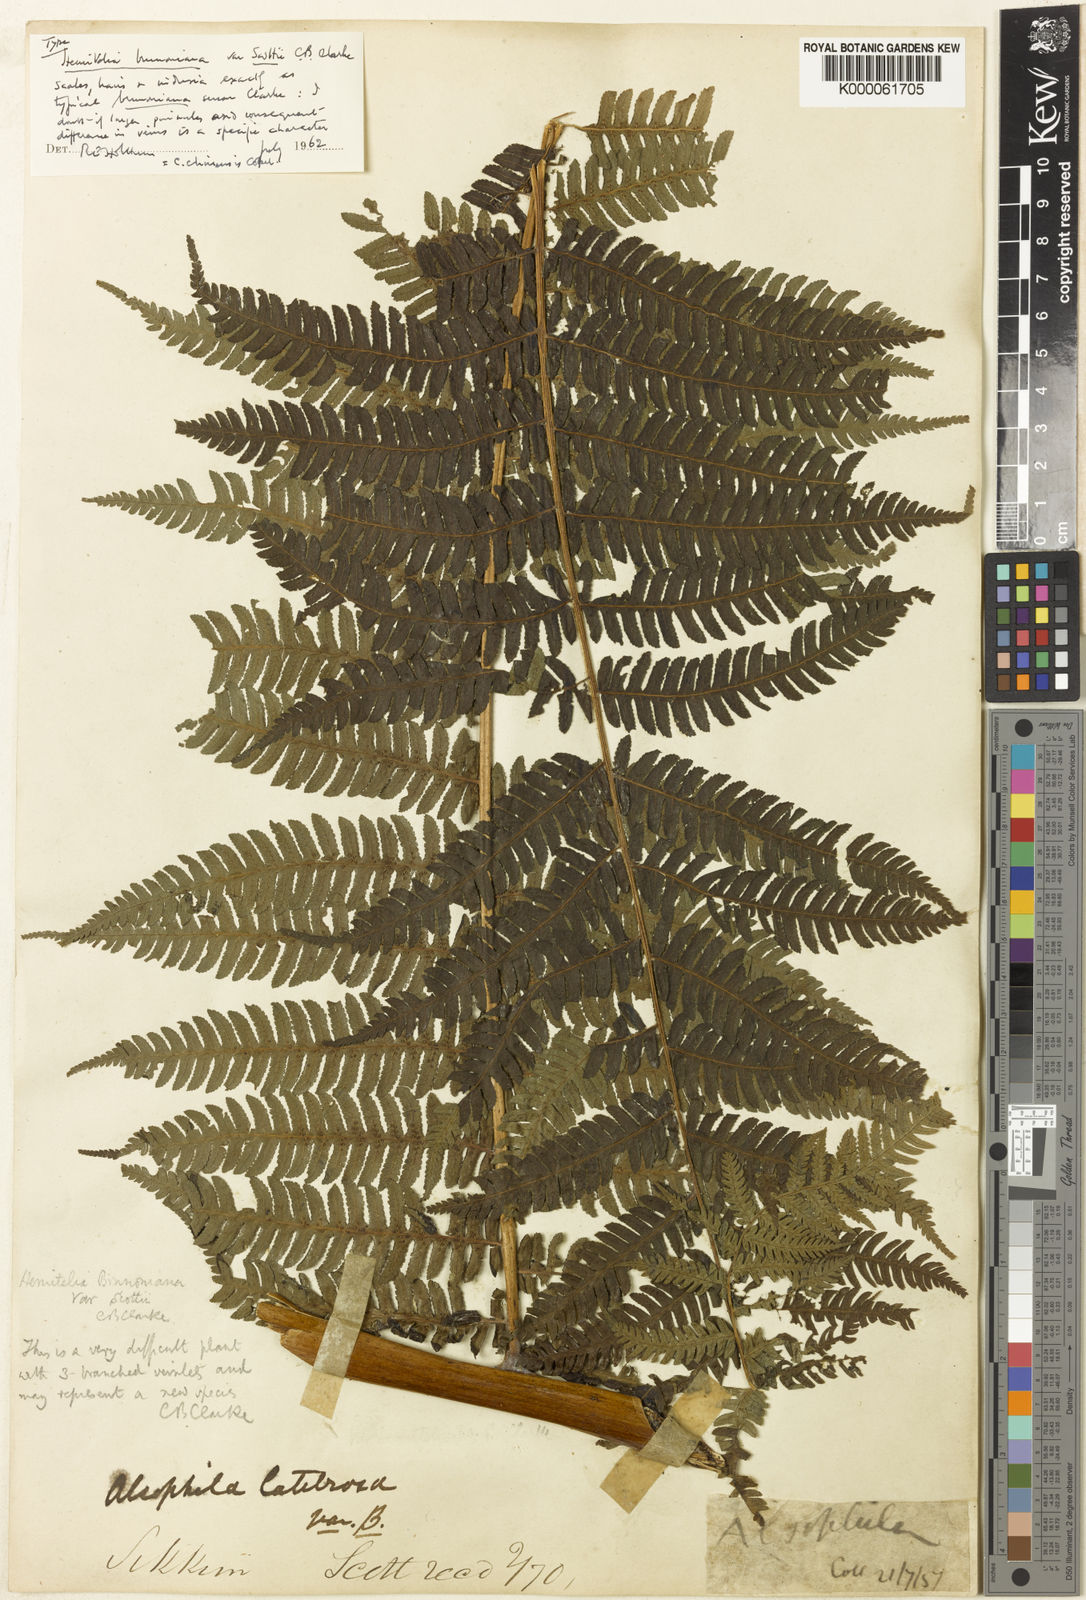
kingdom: Plantae
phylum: Tracheophyta
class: Polypodiopsida
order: Cyatheales
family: Cyatheaceae
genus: Sphaeropteris
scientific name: Sphaeropteris chinensis
